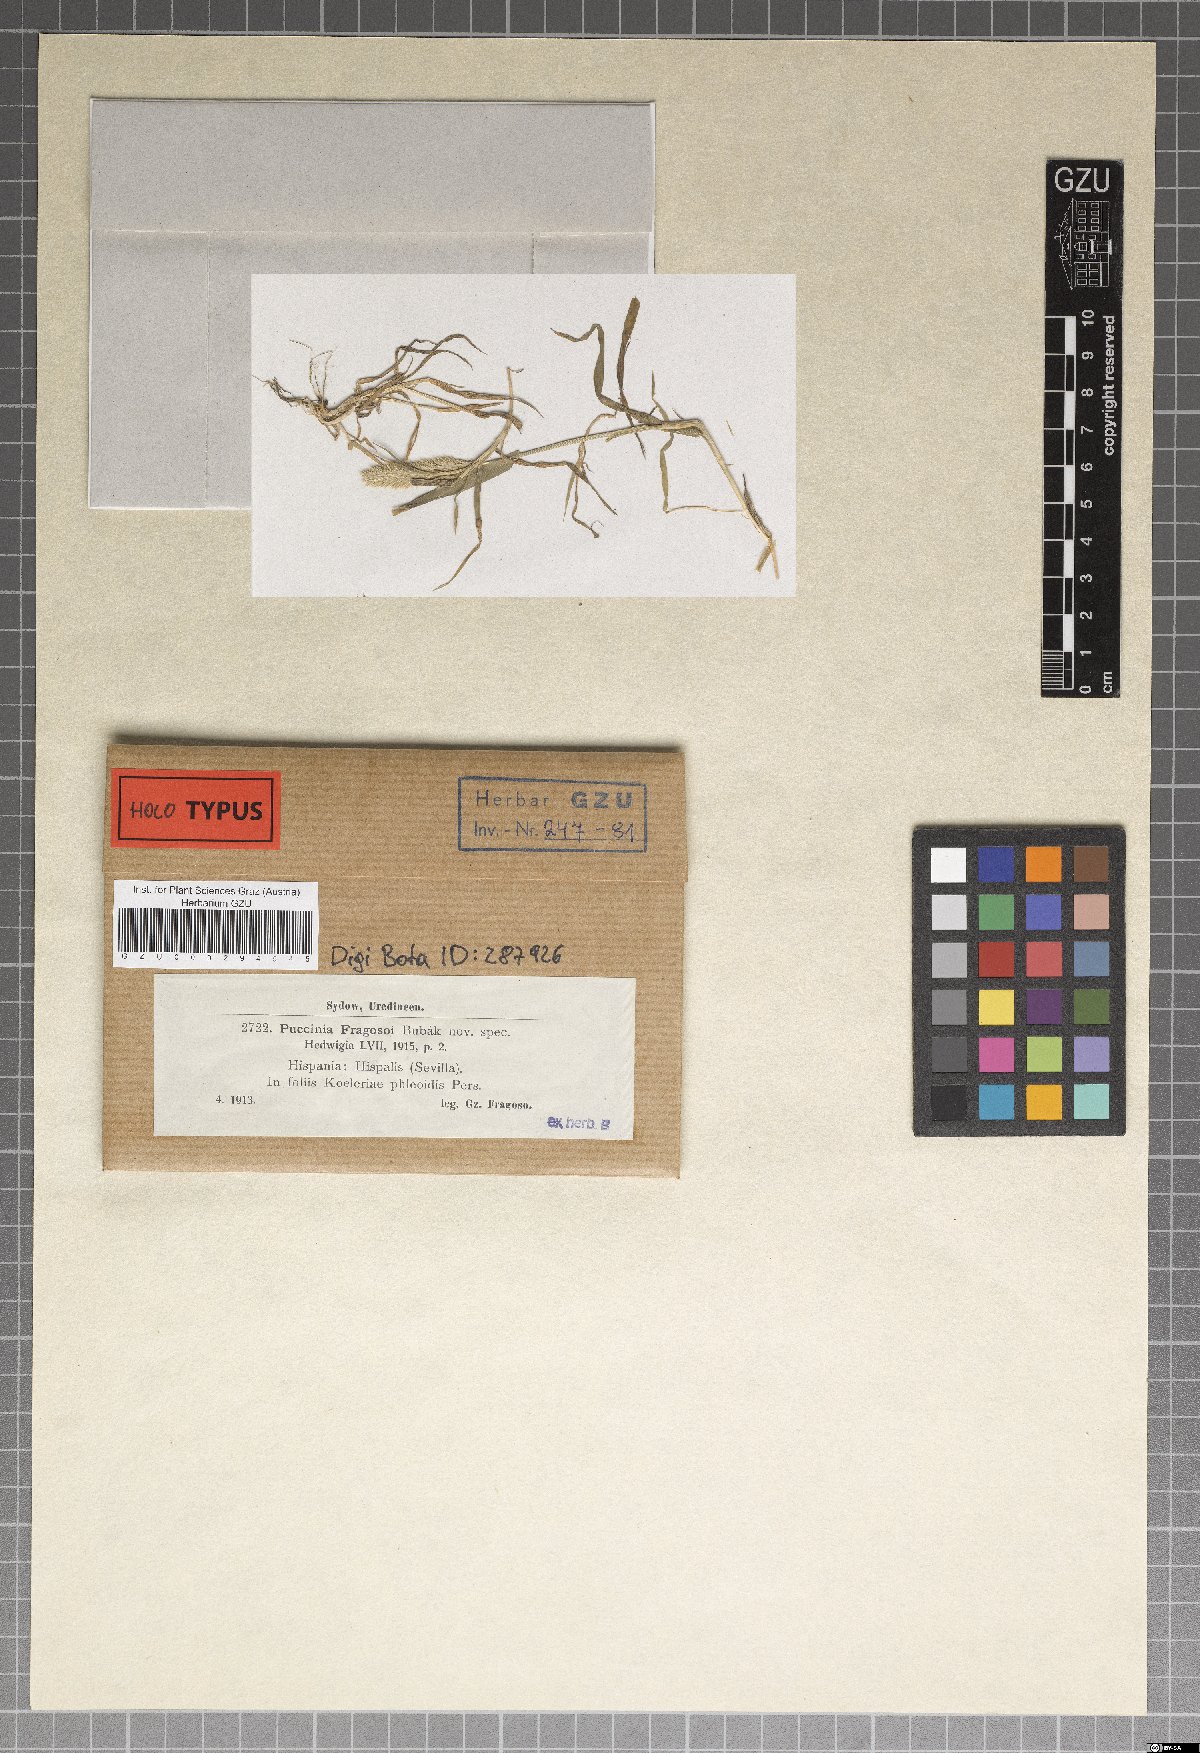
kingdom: Fungi
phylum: Basidiomycota
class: Pucciniomycetes
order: Pucciniales
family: Pucciniaceae
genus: Puccinia
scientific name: Puccinia hordei
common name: Barley leaf rust
